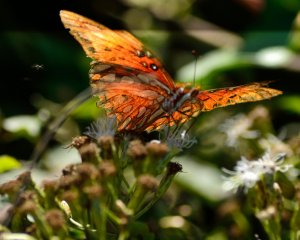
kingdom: Animalia
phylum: Arthropoda
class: Insecta
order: Lepidoptera
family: Nymphalidae
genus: Dione
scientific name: Dione vanillae
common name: Gulf Fritillary
